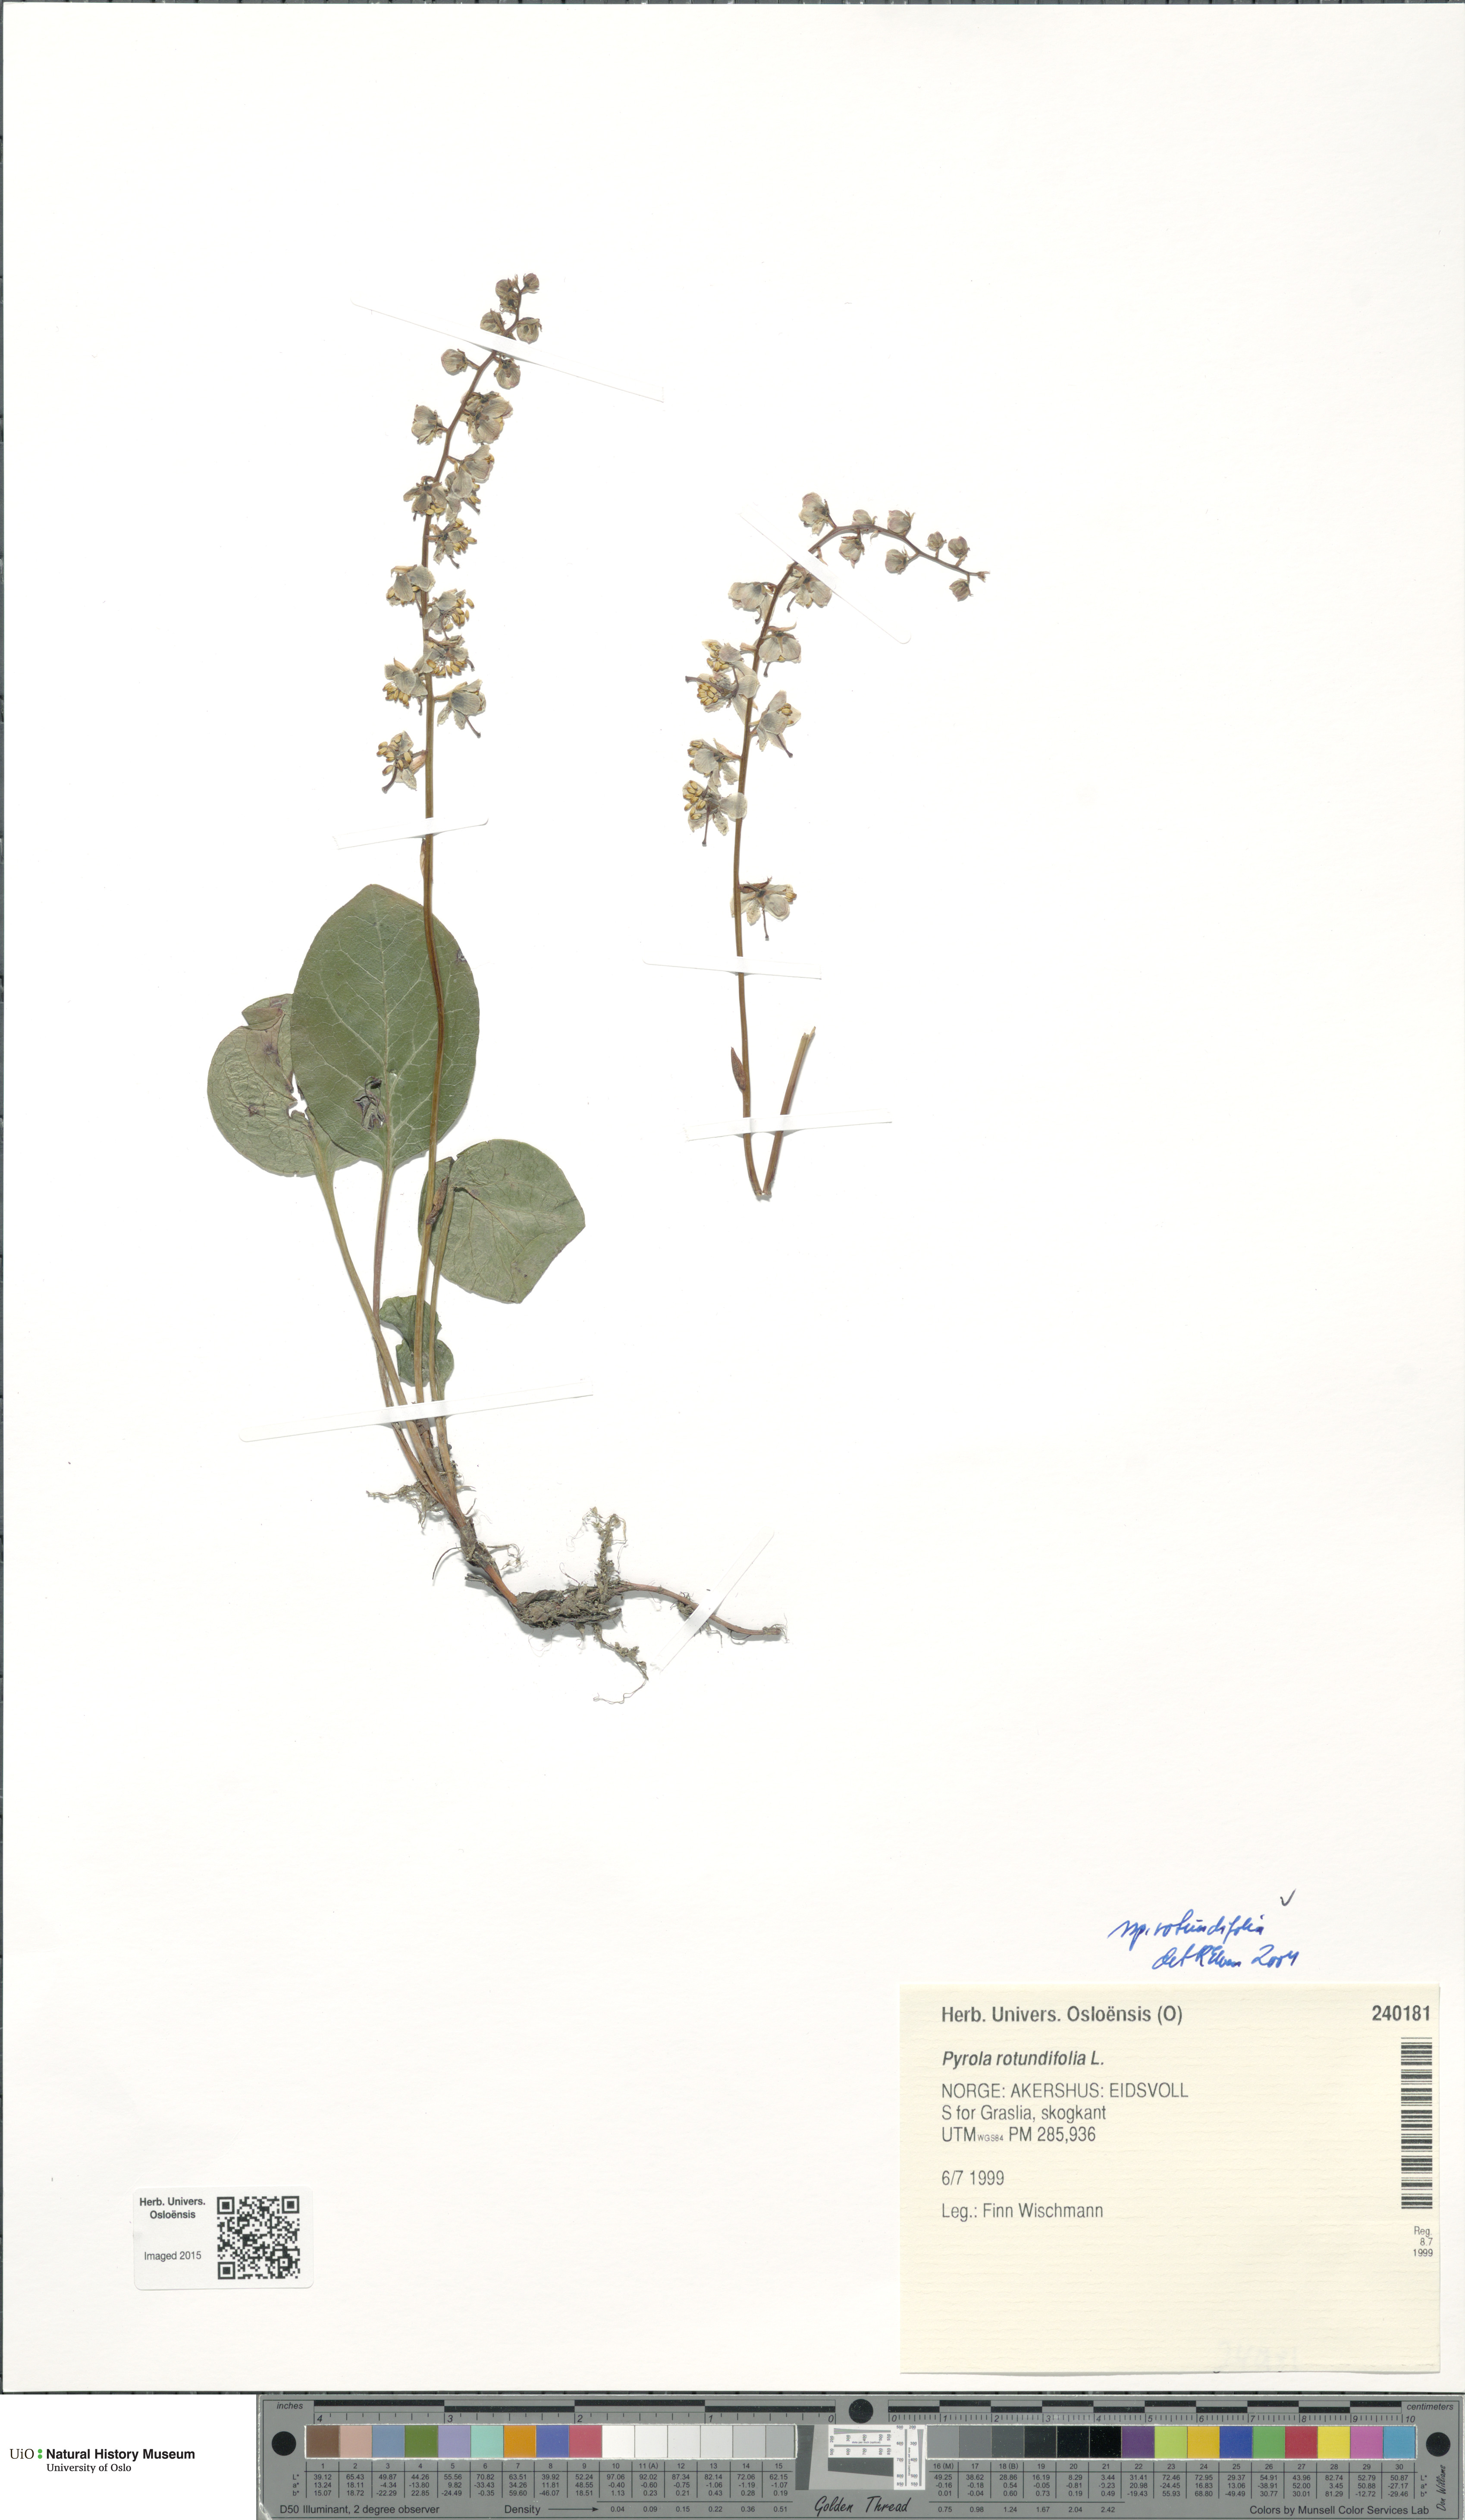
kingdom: Plantae
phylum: Tracheophyta
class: Magnoliopsida
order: Ericales
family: Ericaceae
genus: Pyrola
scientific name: Pyrola rotundifolia
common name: Round-leaved wintergreen
